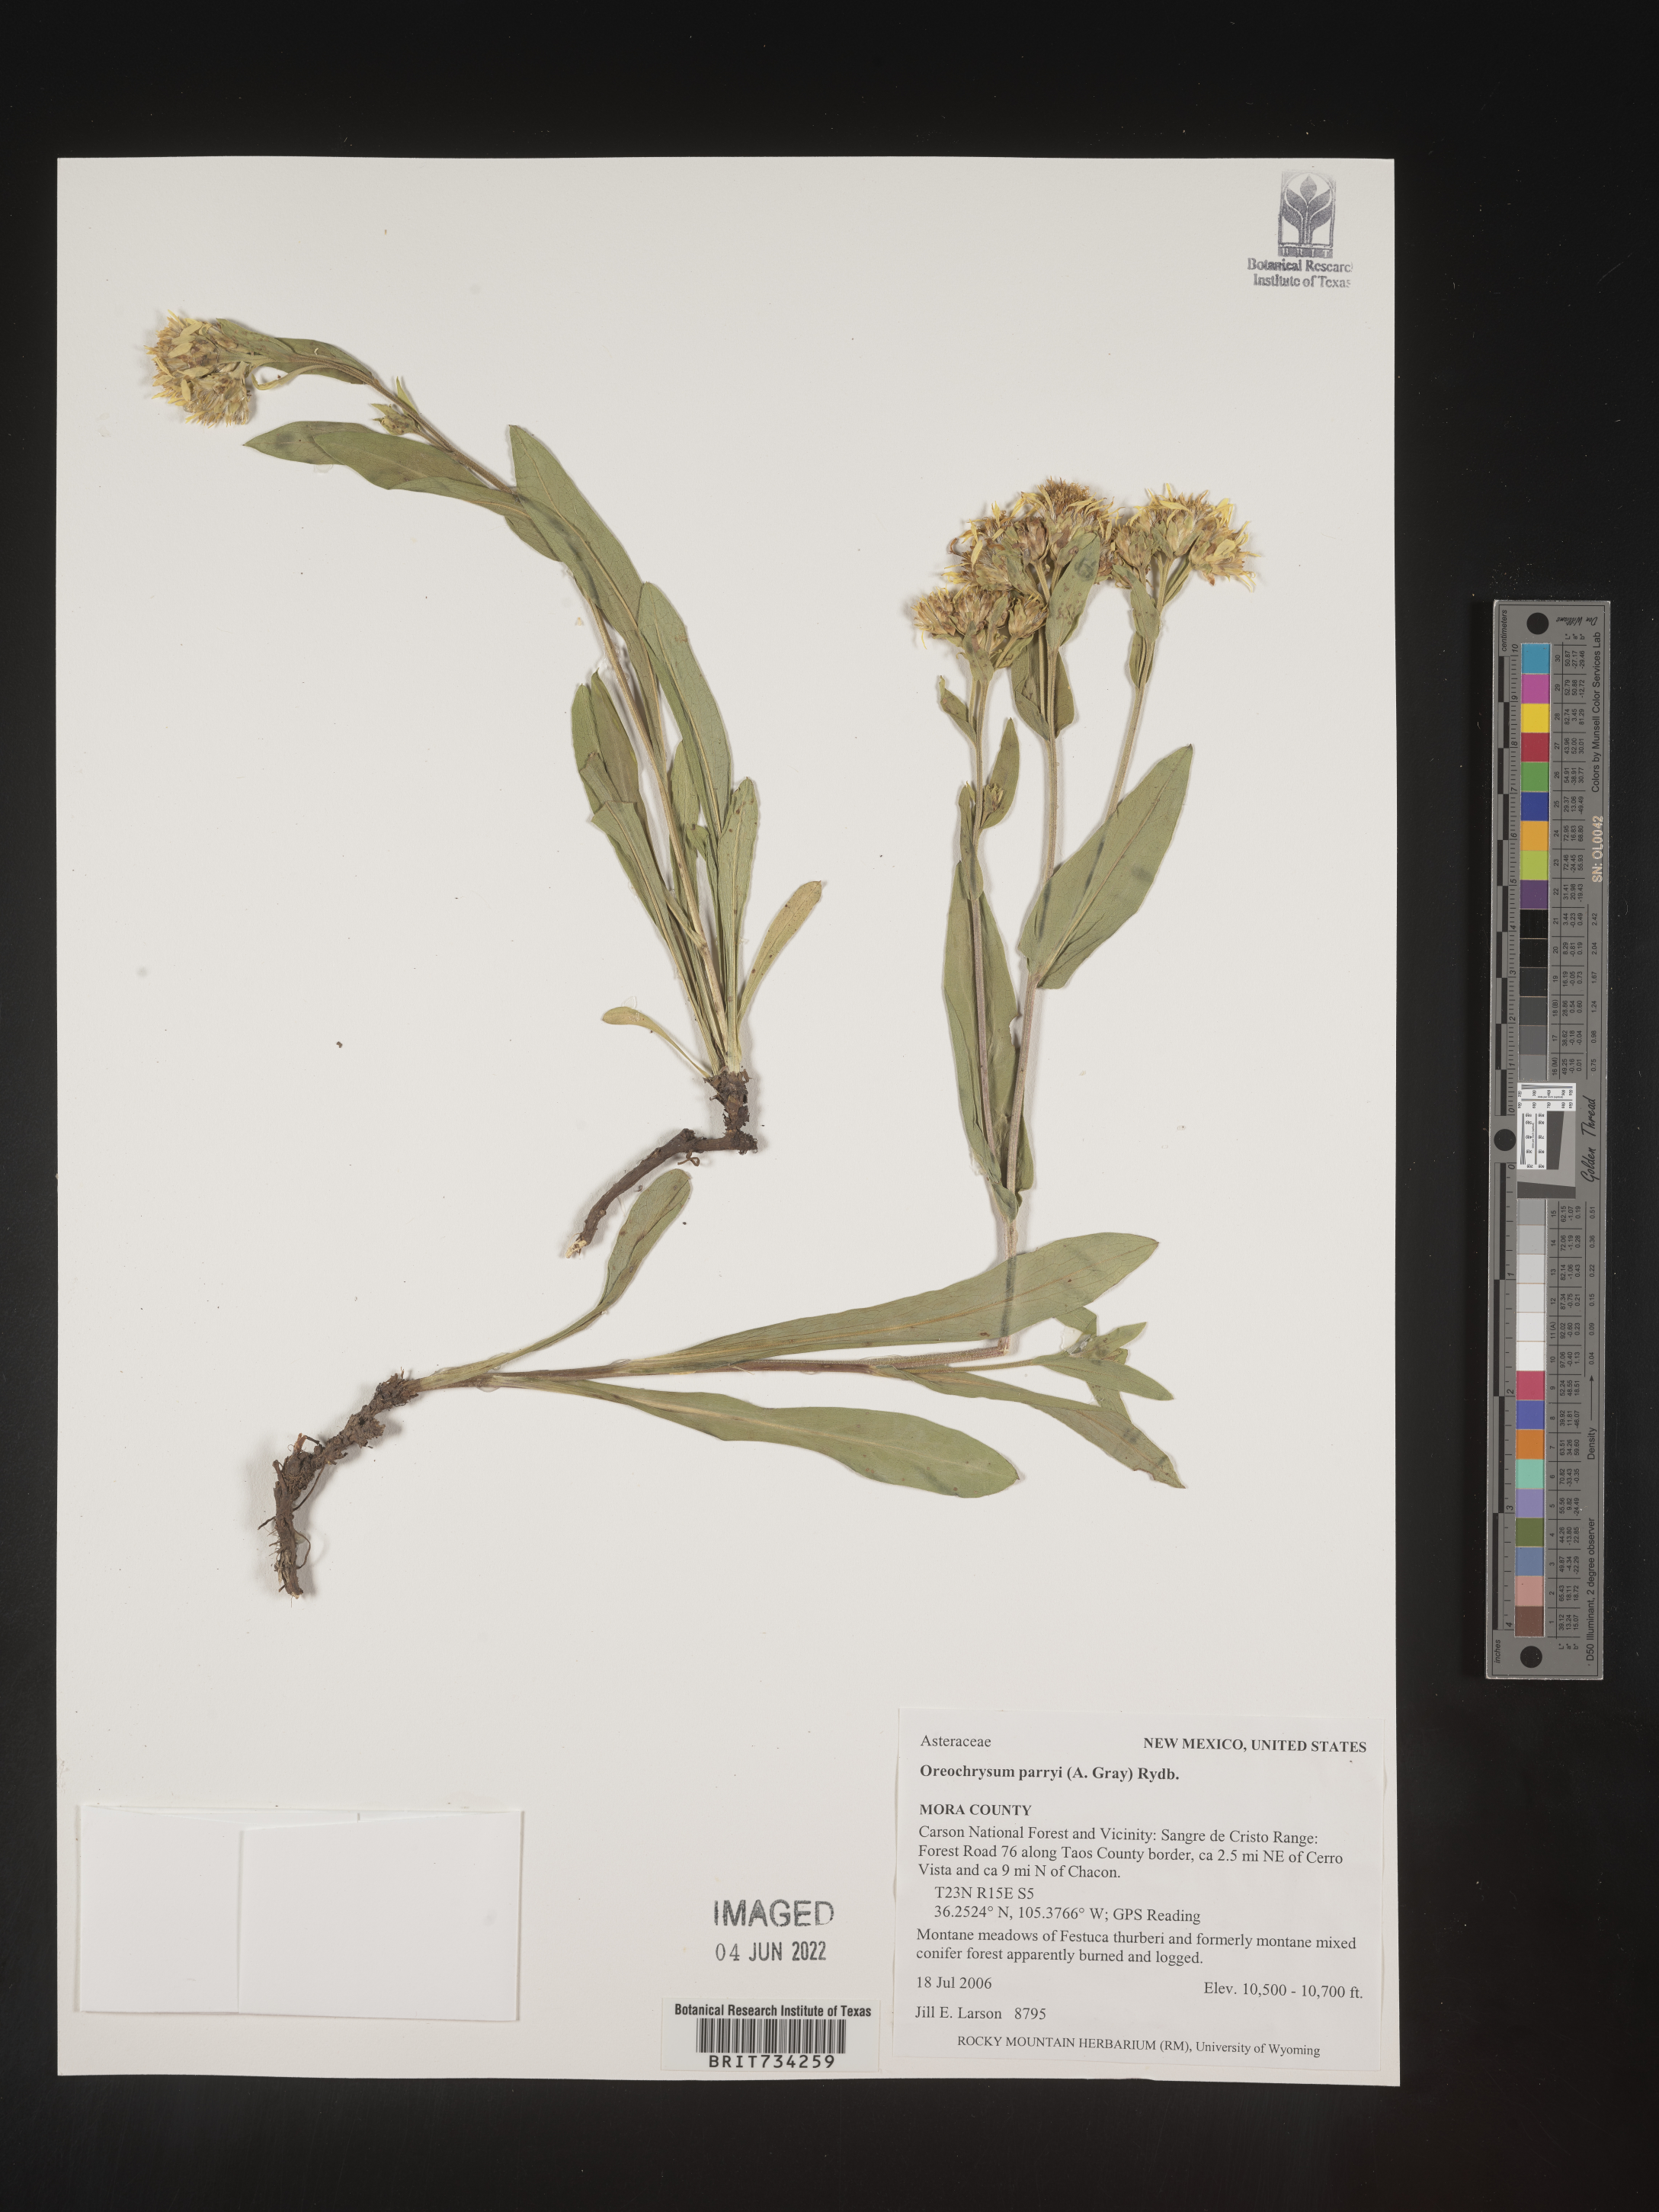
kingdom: Plantae
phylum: Tracheophyta
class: Magnoliopsida
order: Asterales
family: Asteraceae
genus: Oreochrysum
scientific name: Oreochrysum parryi
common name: Parry's goldenweed
